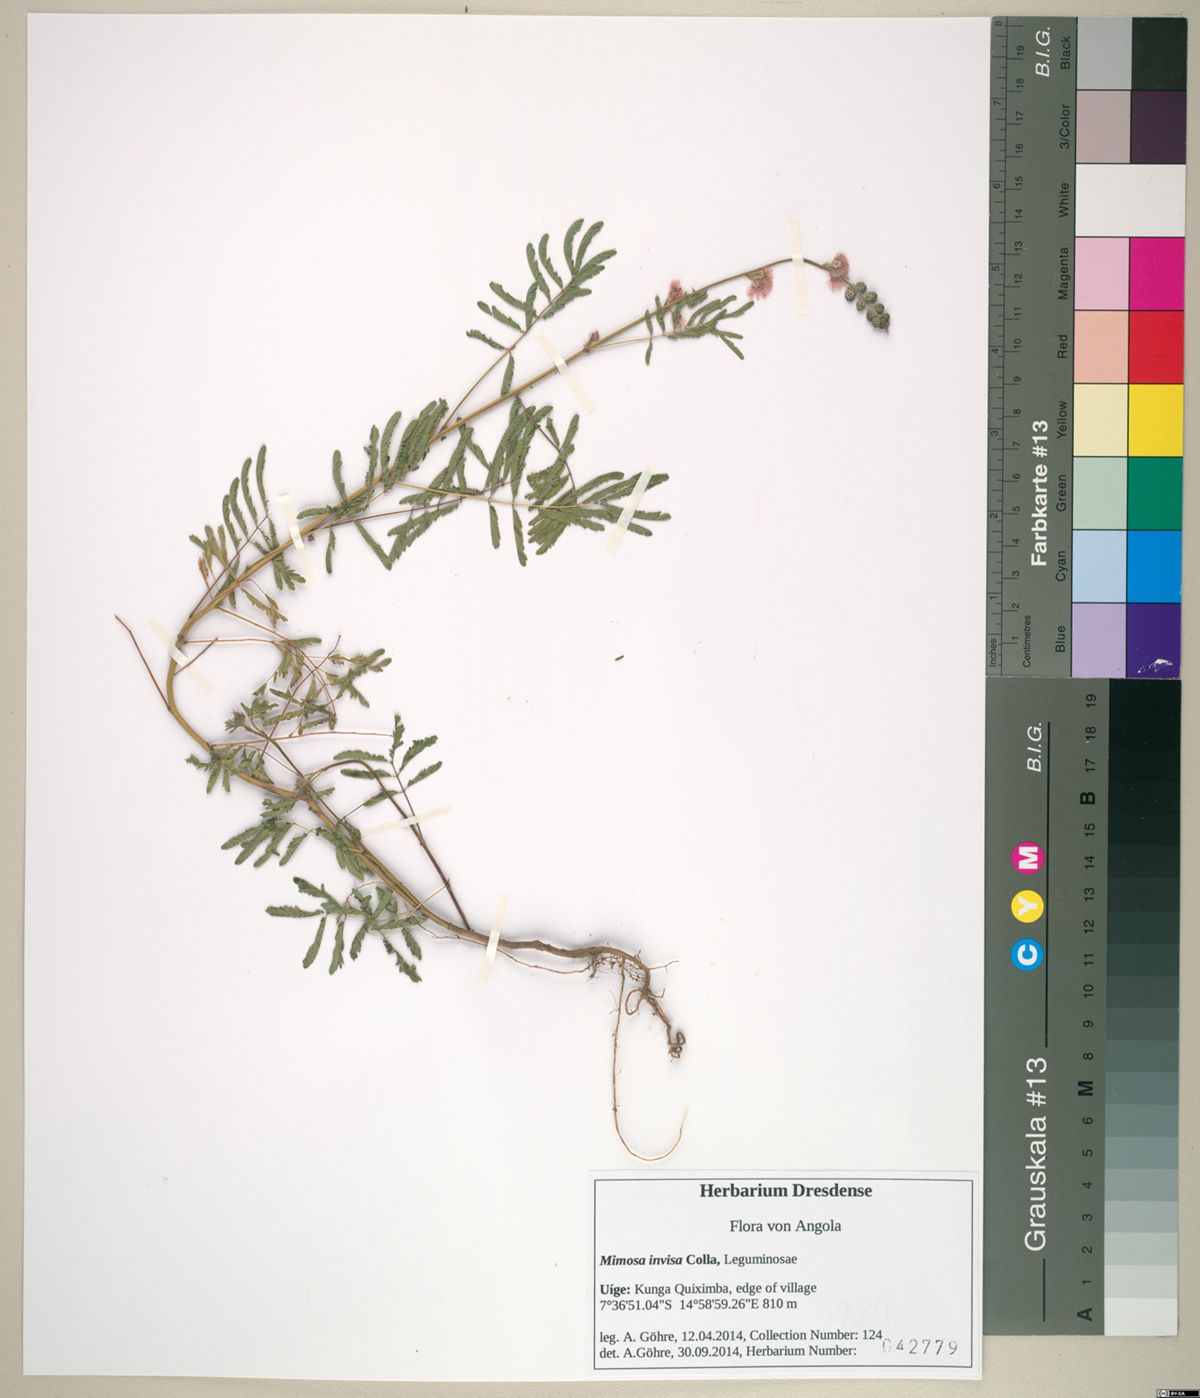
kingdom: Plantae
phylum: Tracheophyta
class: Magnoliopsida
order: Fabales
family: Fabaceae
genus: Mimosa
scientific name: Mimosa diplotricha
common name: Giant sensitive-plant
